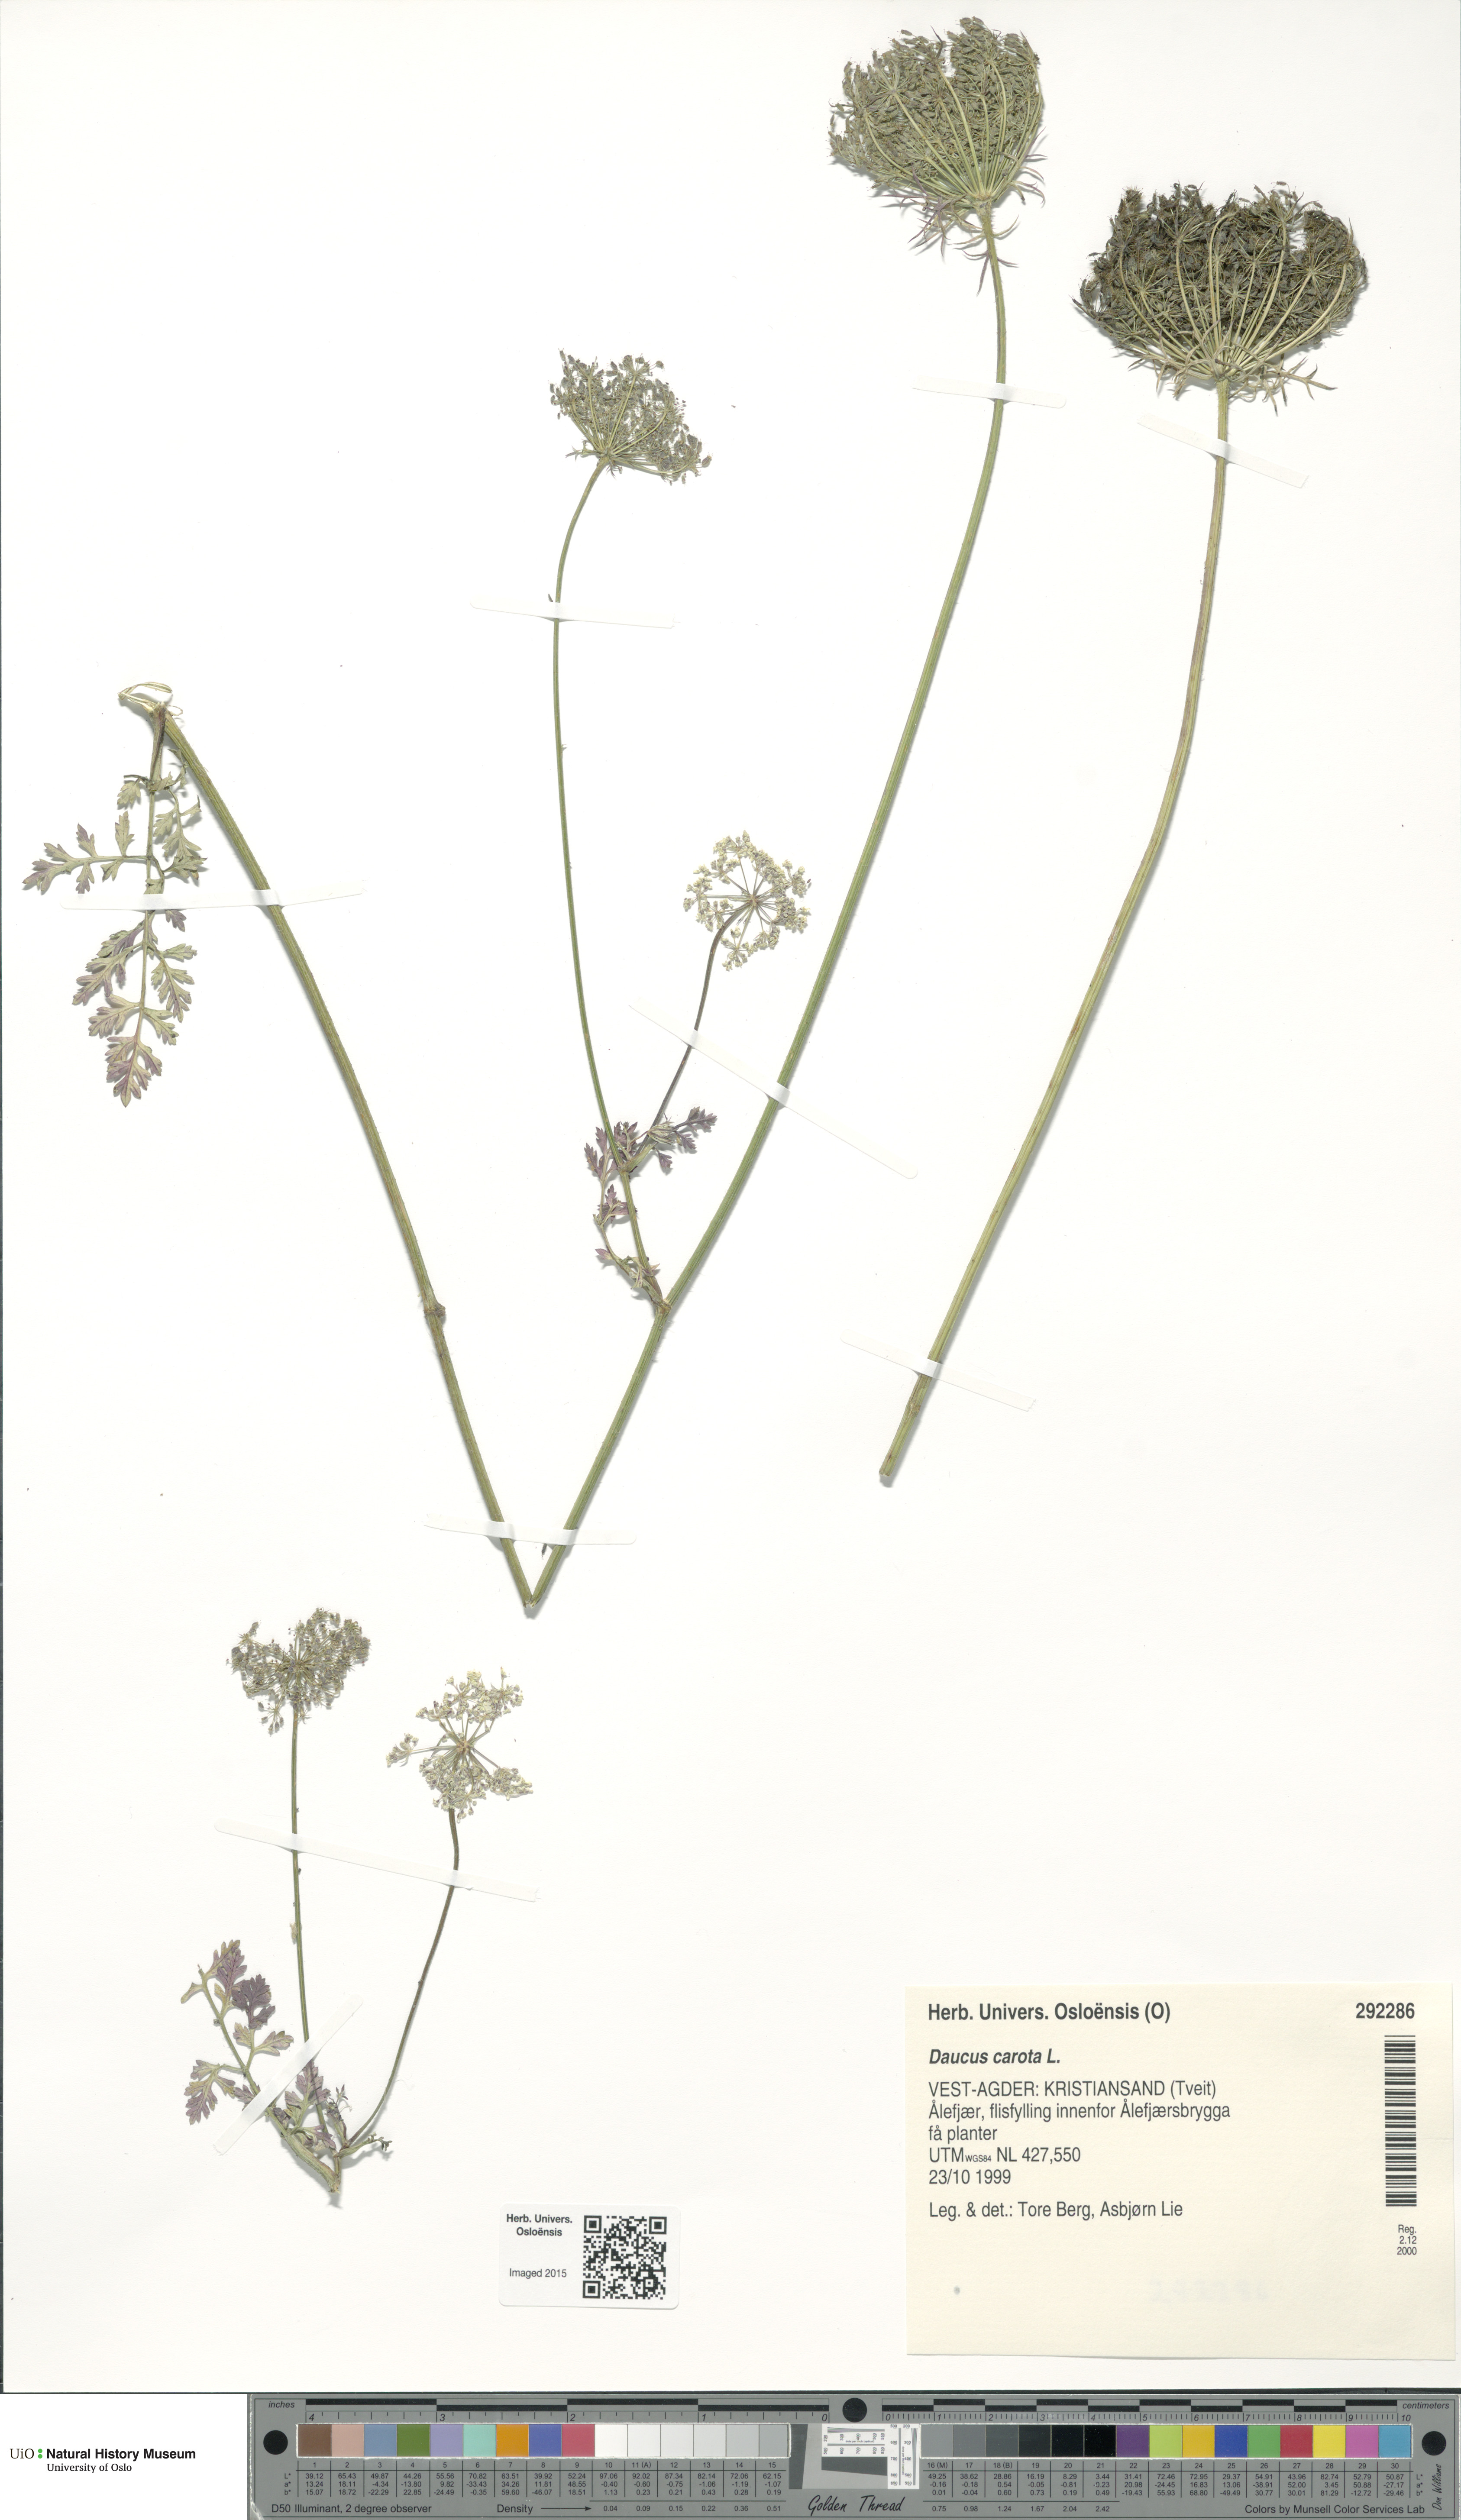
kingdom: Plantae
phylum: Tracheophyta
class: Magnoliopsida
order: Apiales
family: Apiaceae
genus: Daucus
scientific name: Daucus carota
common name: Wild carrot
